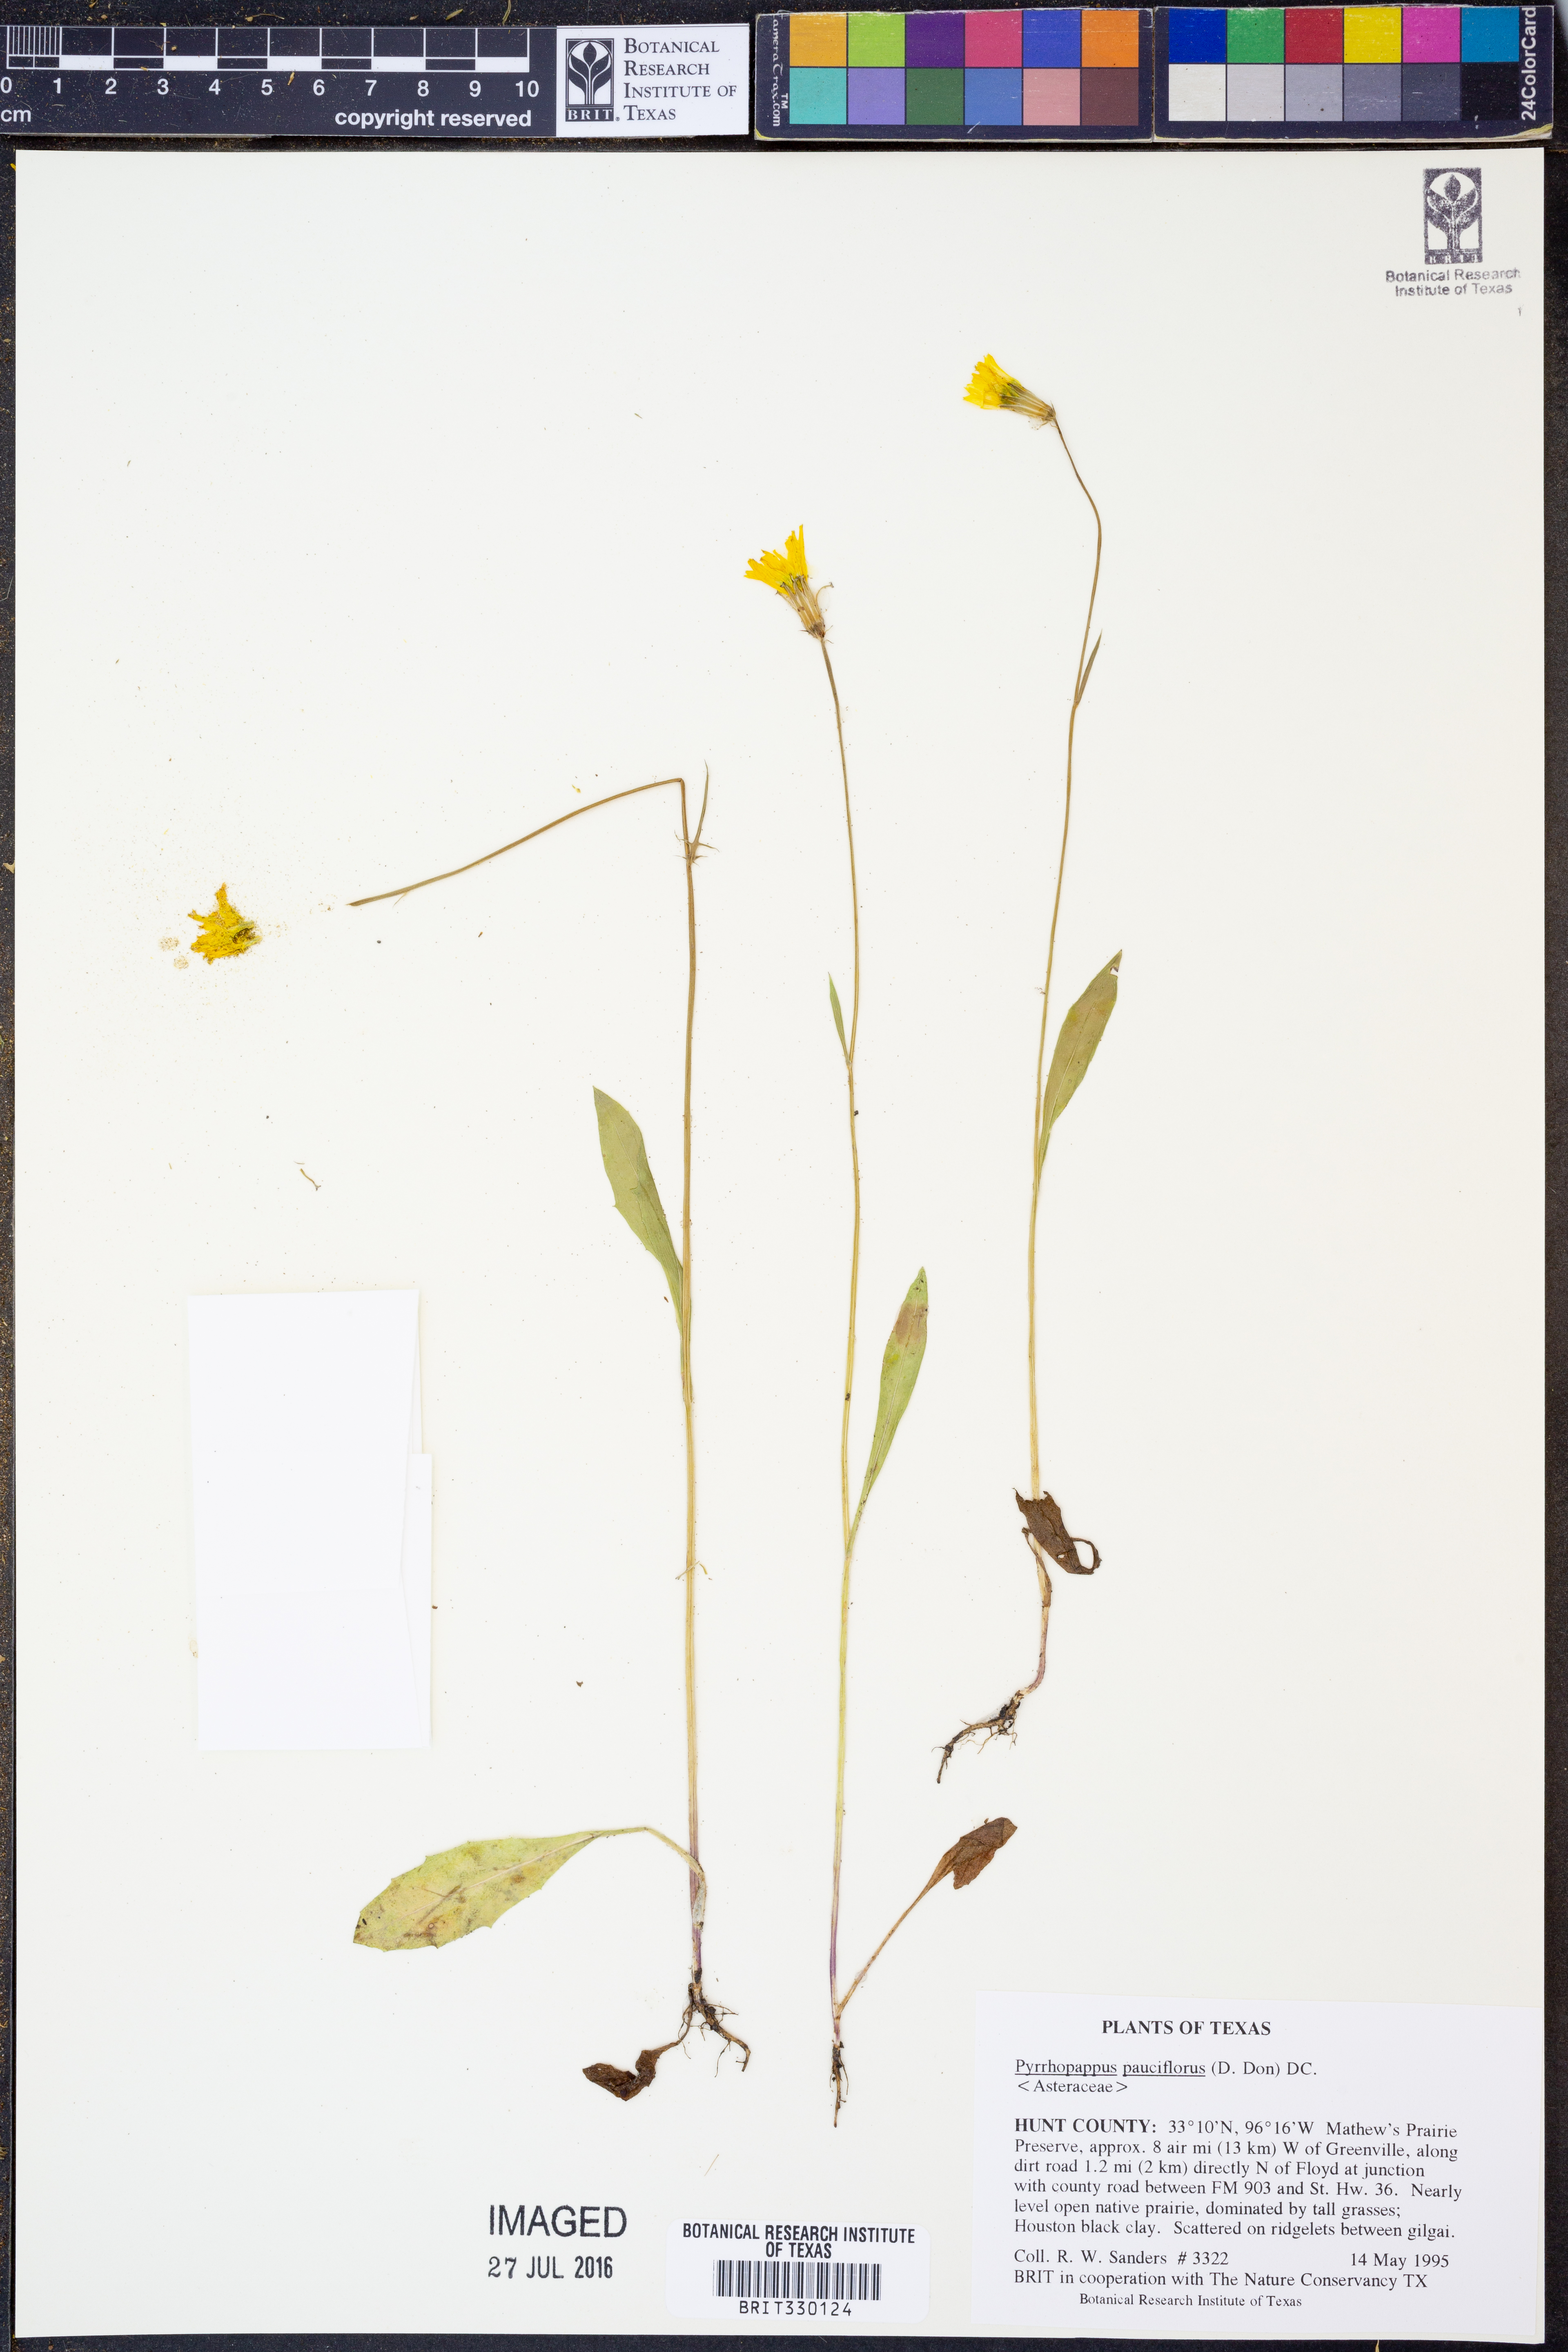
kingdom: Plantae
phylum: Tracheophyta
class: Magnoliopsida
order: Asterales
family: Asteraceae
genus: Pyrrhopappus
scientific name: Pyrrhopappus pauciflorus
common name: Texas false dandelion
